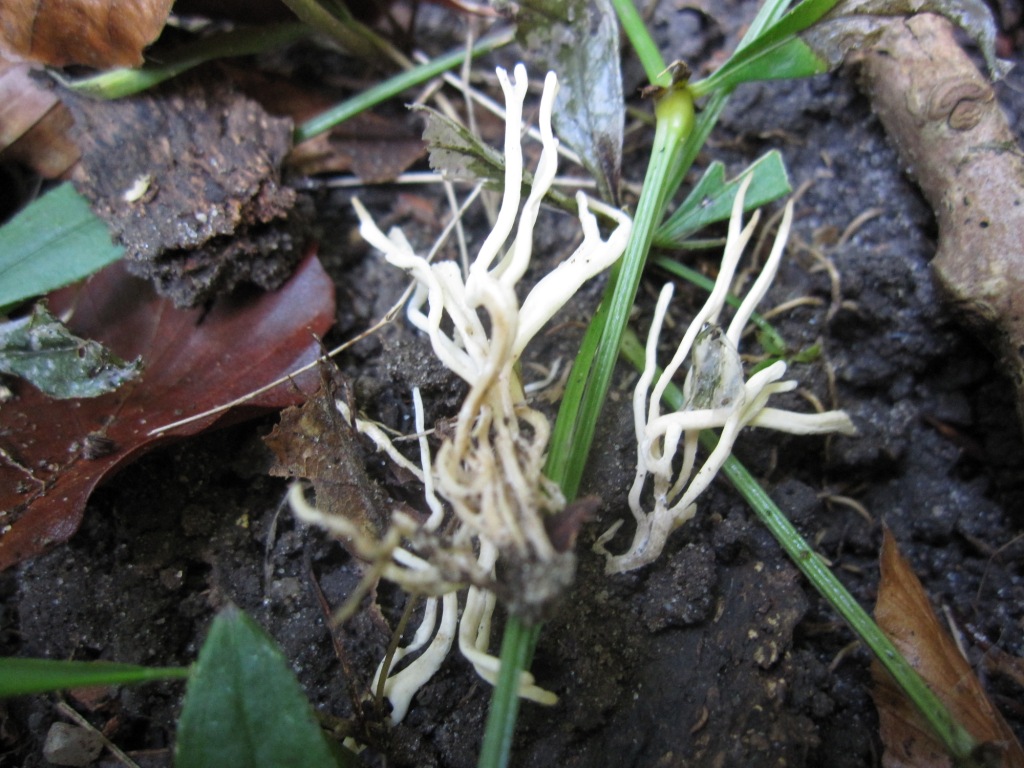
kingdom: Fungi
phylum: Basidiomycota
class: Agaricomycetes
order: Agaricales
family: Clavariaceae
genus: Clavulinopsis
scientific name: Clavulinopsis rufipes
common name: småsporet køllesvamp
